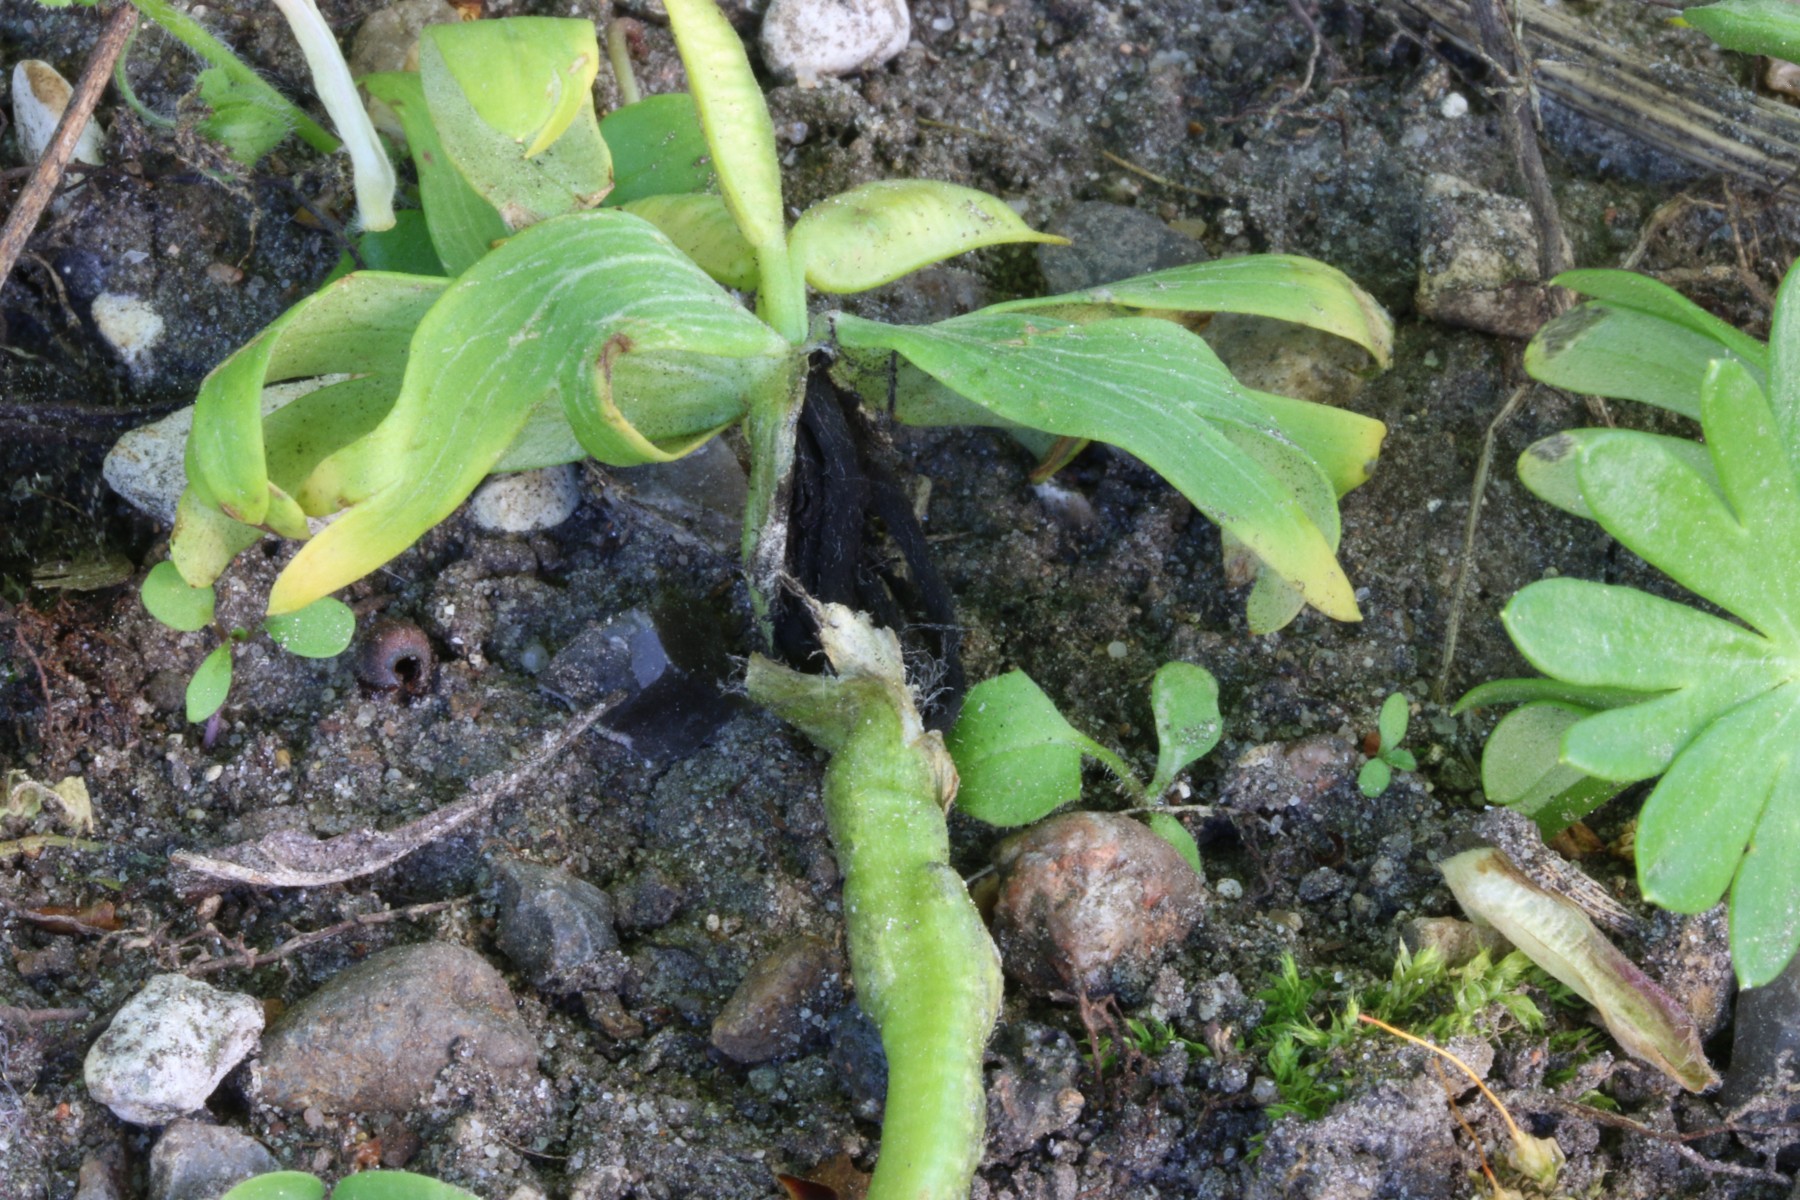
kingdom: Fungi
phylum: Basidiomycota
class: Ustilaginomycetes
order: Urocystidales
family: Urocystidaceae
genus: Urocystis
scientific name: Urocystis eranthidis
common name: erantis-brand
